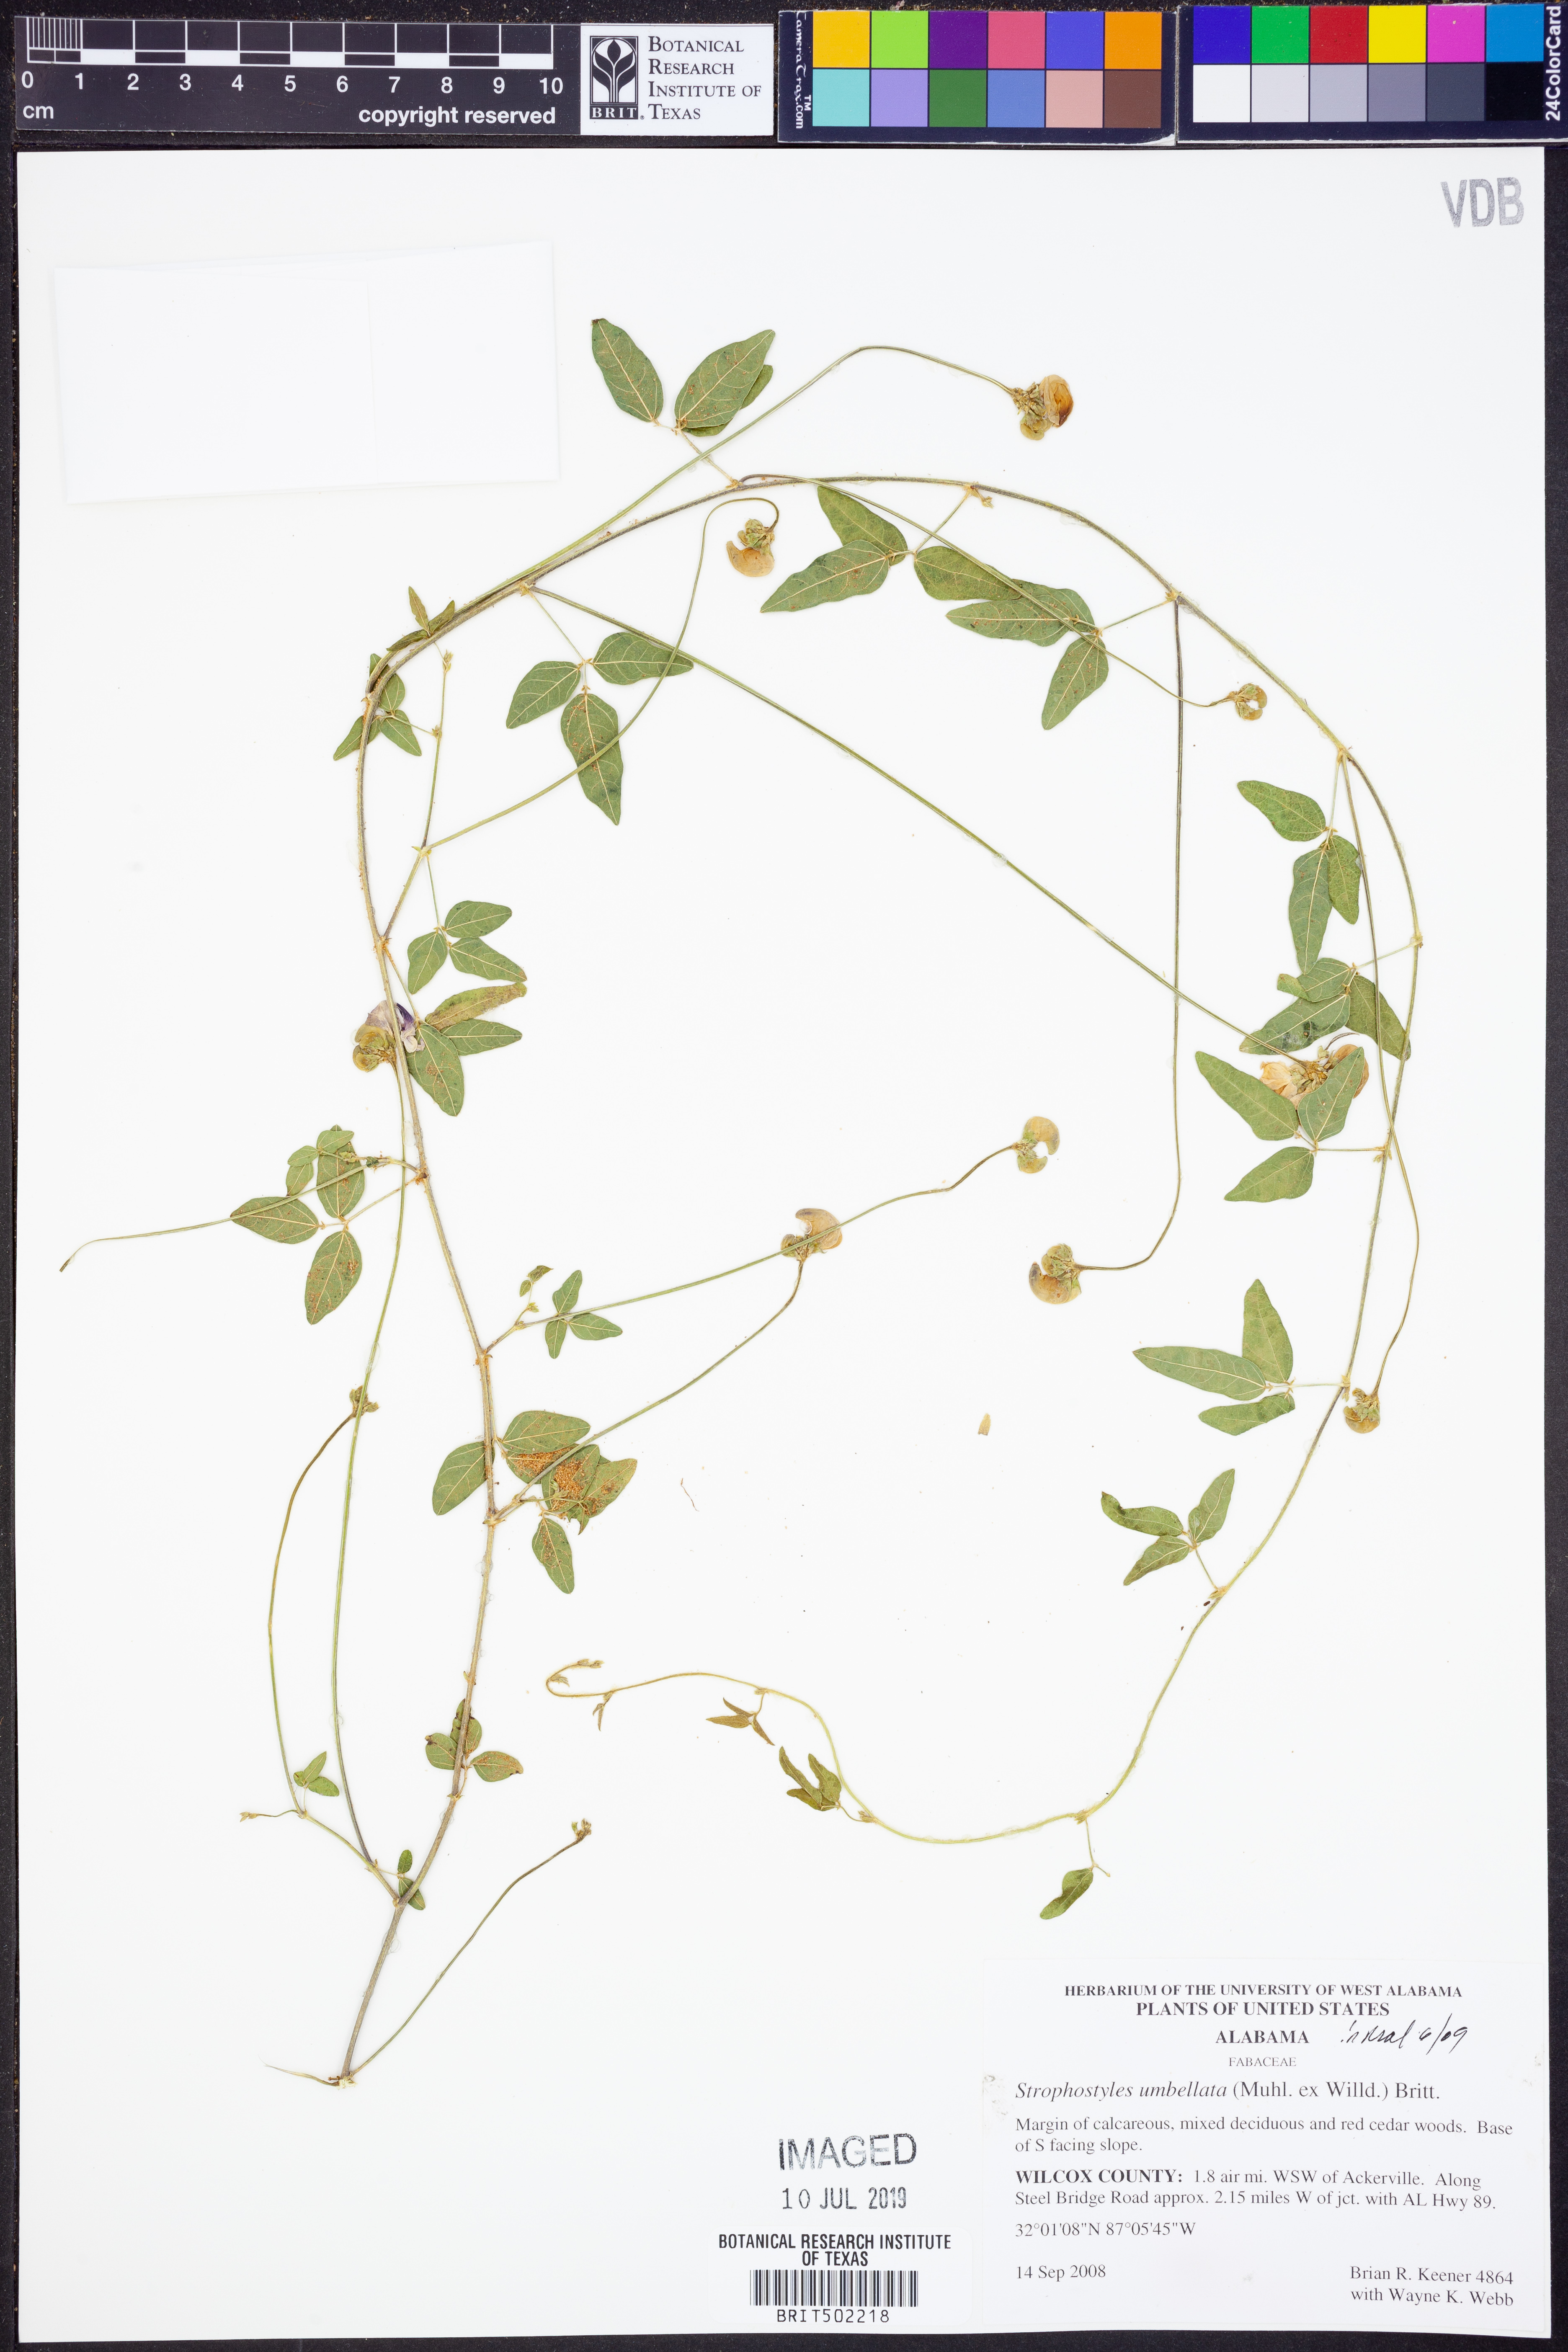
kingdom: Plantae
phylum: Tracheophyta
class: Magnoliopsida
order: Fabales
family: Fabaceae
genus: Strophostyles
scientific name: Strophostyles umbellata
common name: Perennial wild bean
